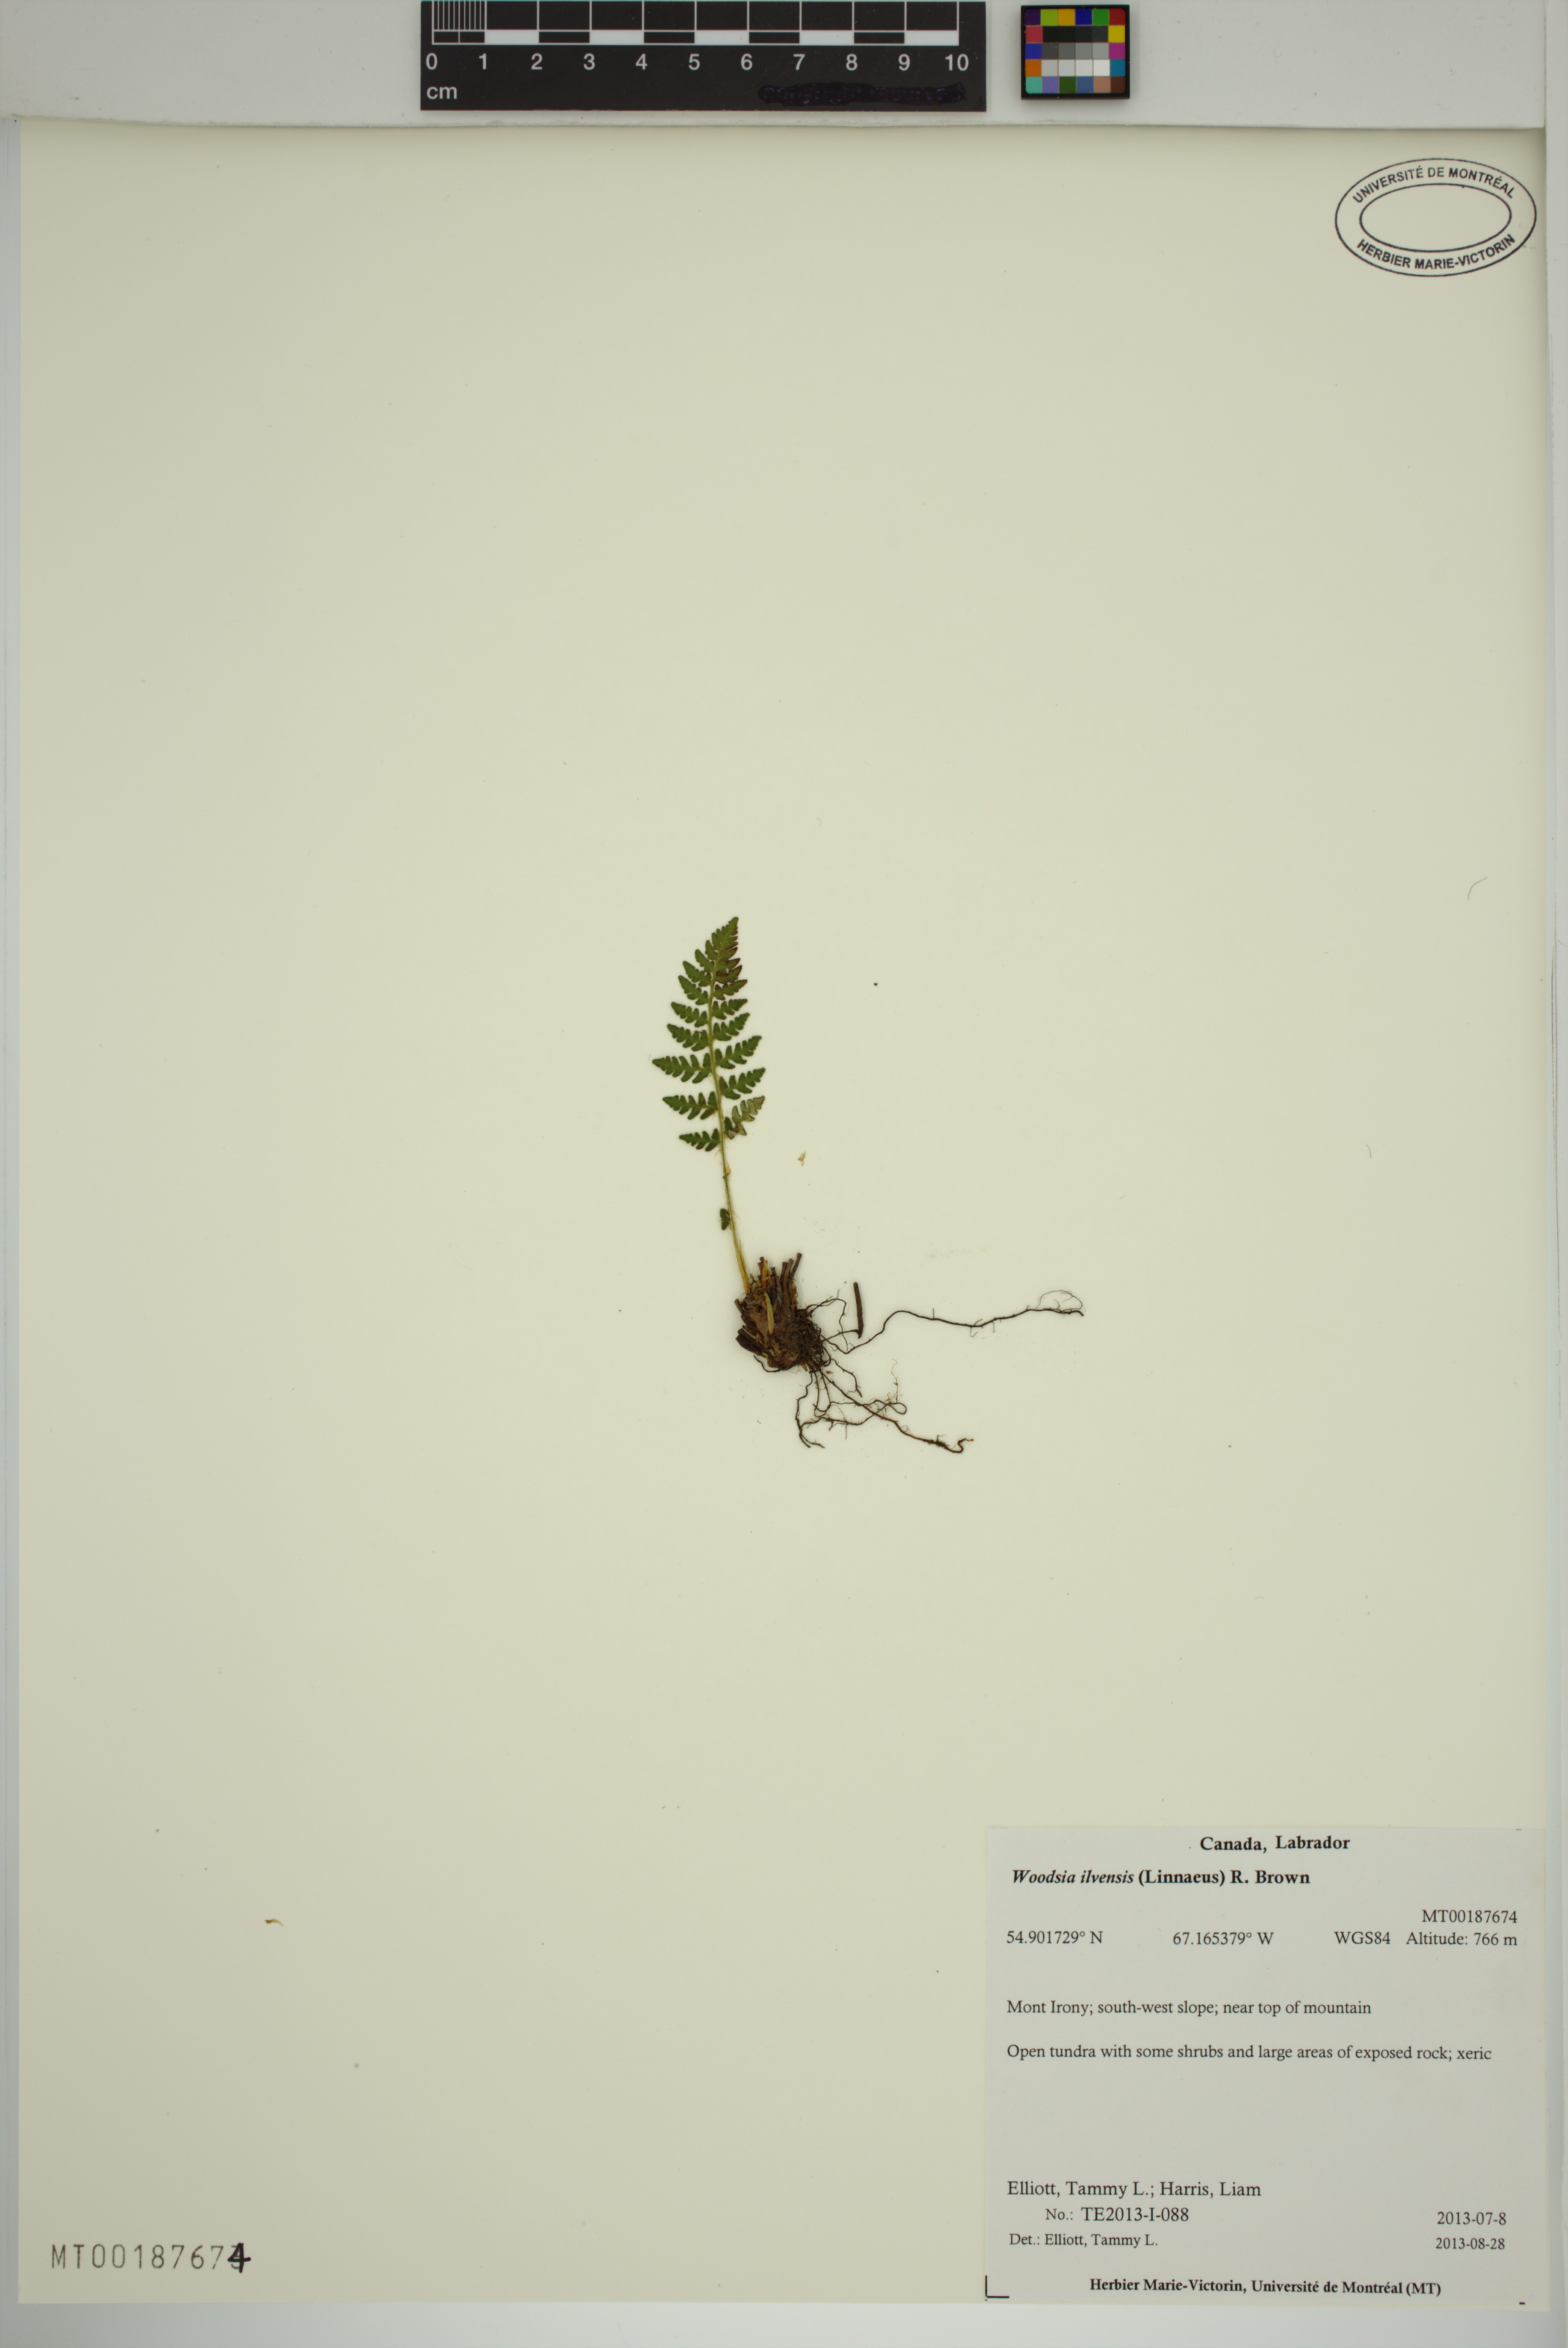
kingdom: Plantae
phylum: Tracheophyta
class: Polypodiopsida
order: Polypodiales
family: Woodsiaceae
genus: Woodsia
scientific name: Woodsia ilvensis
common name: Fragrant woodsia
